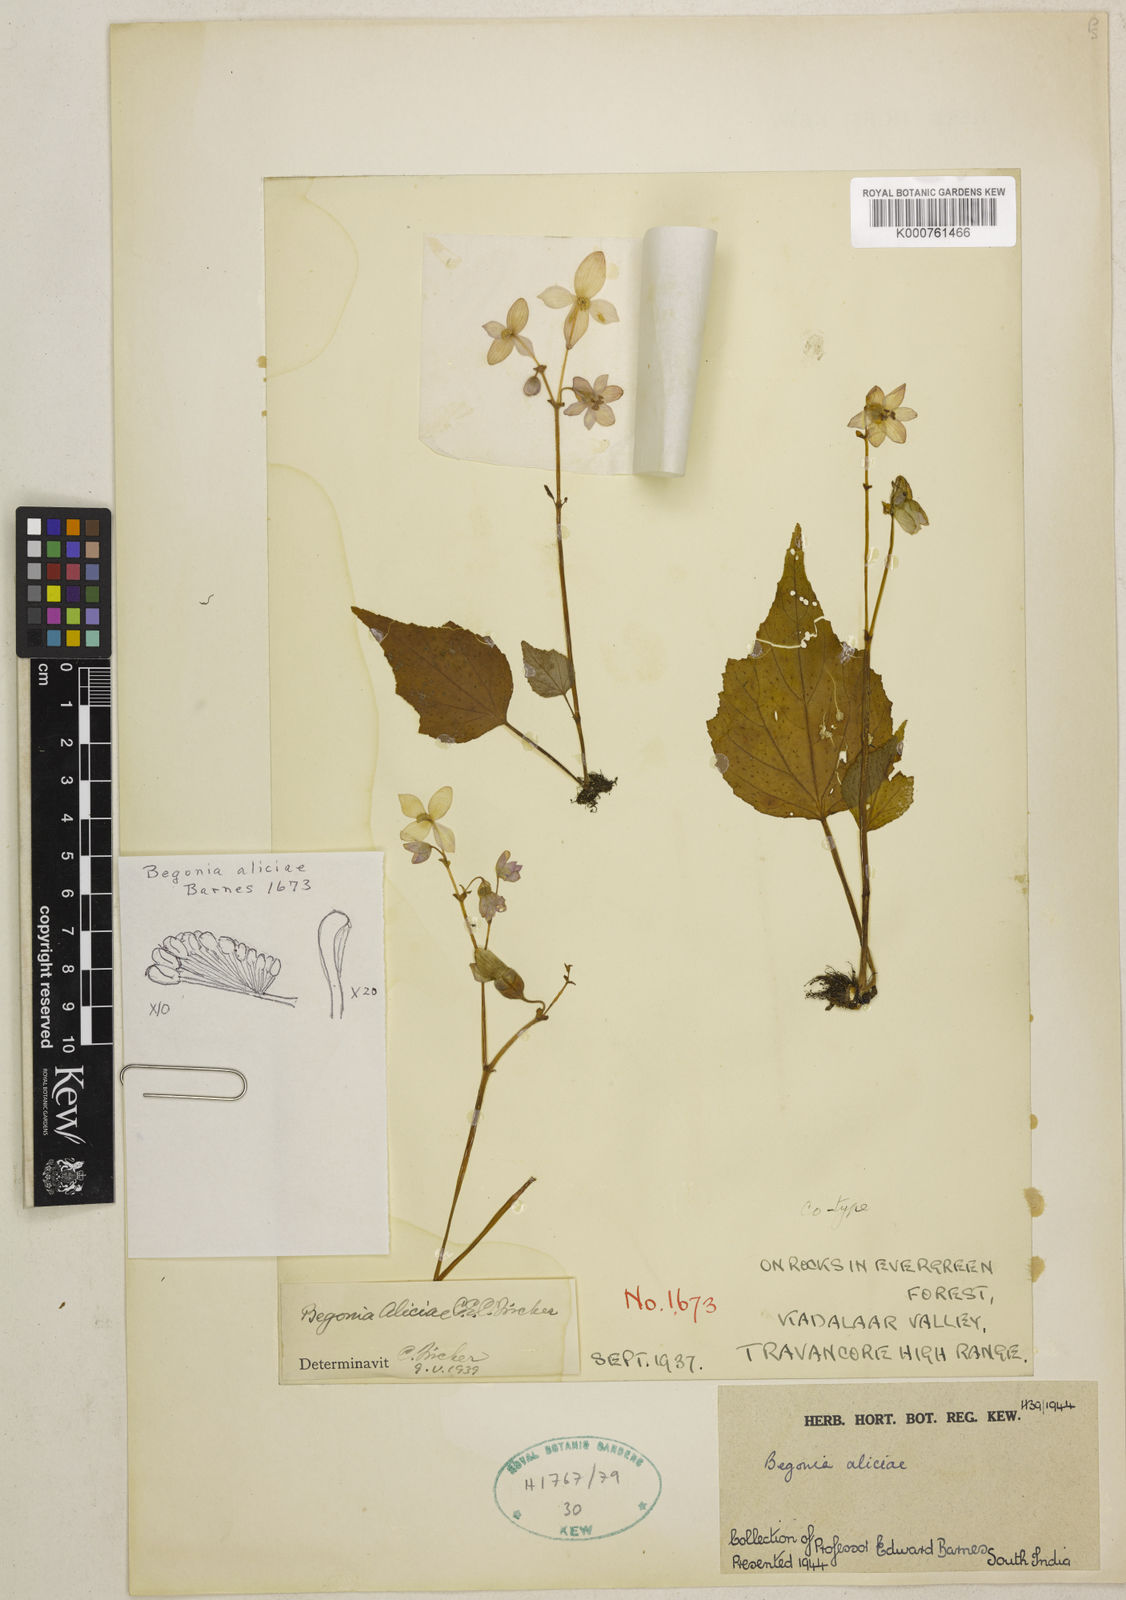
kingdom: Plantae
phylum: Tracheophyta
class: Magnoliopsida
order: Cucurbitales
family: Begoniaceae
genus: Begonia
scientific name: Begonia crenata
